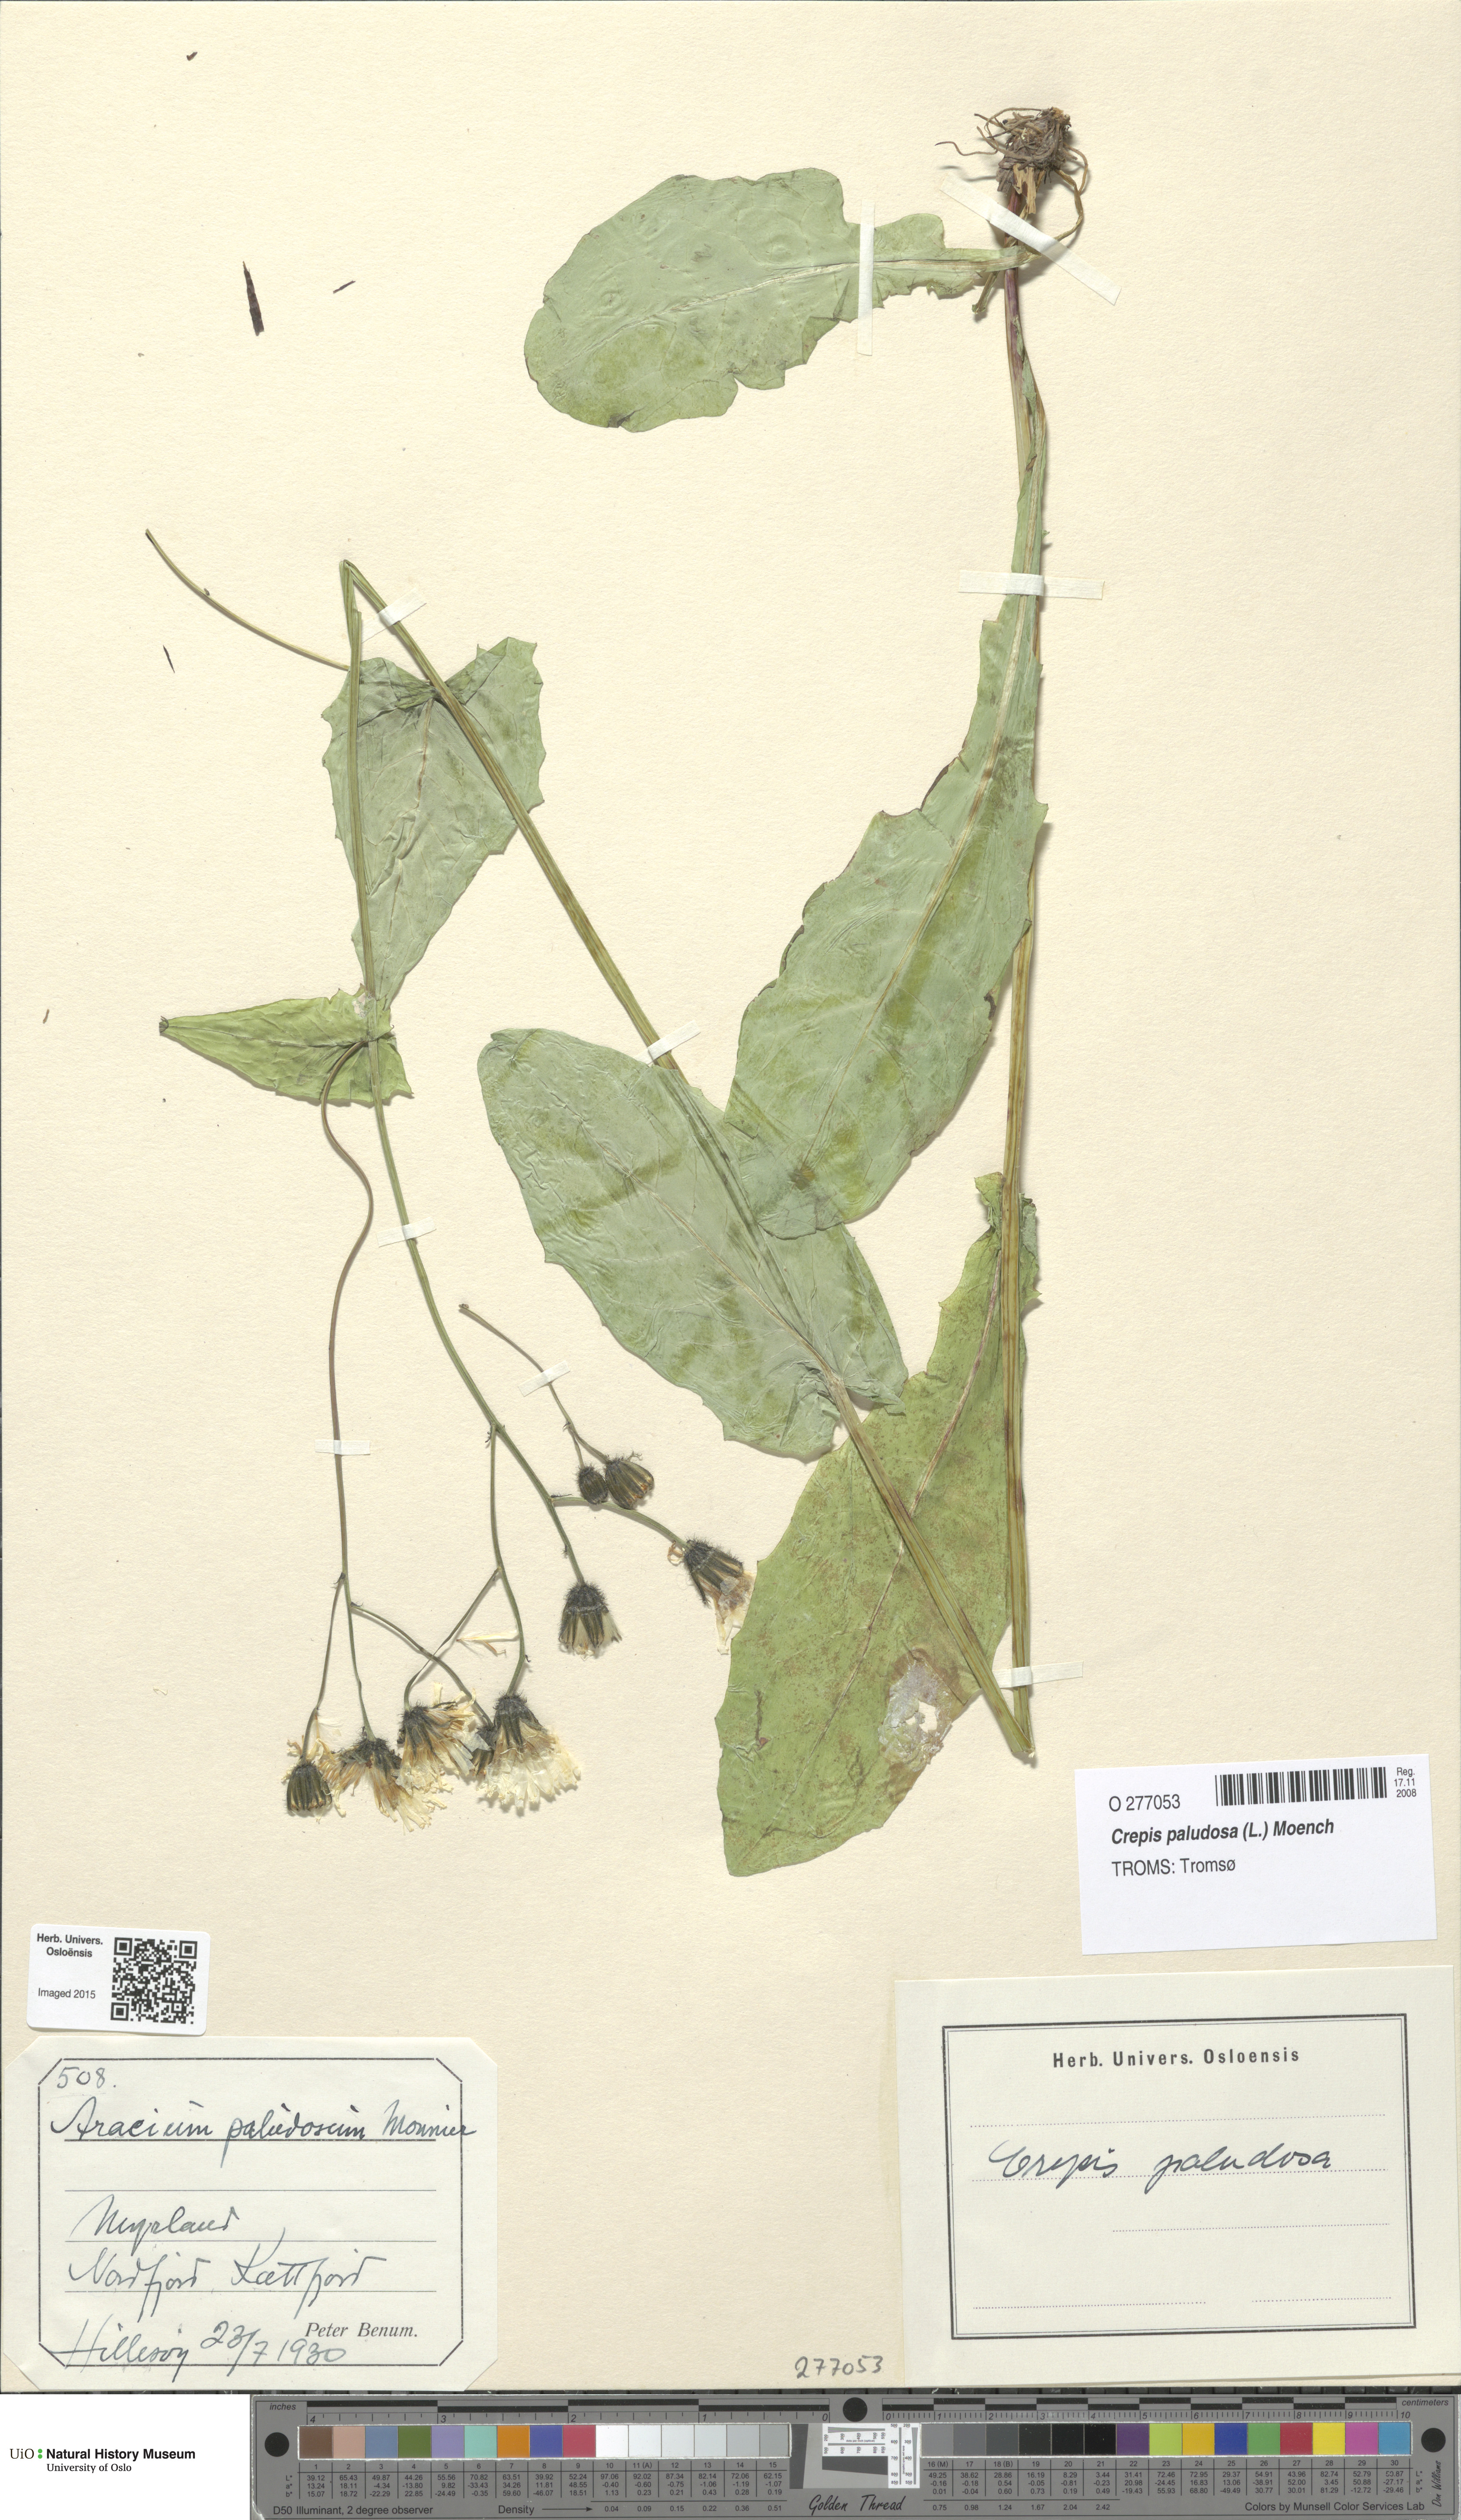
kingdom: Plantae
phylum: Tracheophyta
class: Magnoliopsida
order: Asterales
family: Asteraceae
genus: Crepis
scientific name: Crepis paludosa
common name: Marsh hawk's-beard
